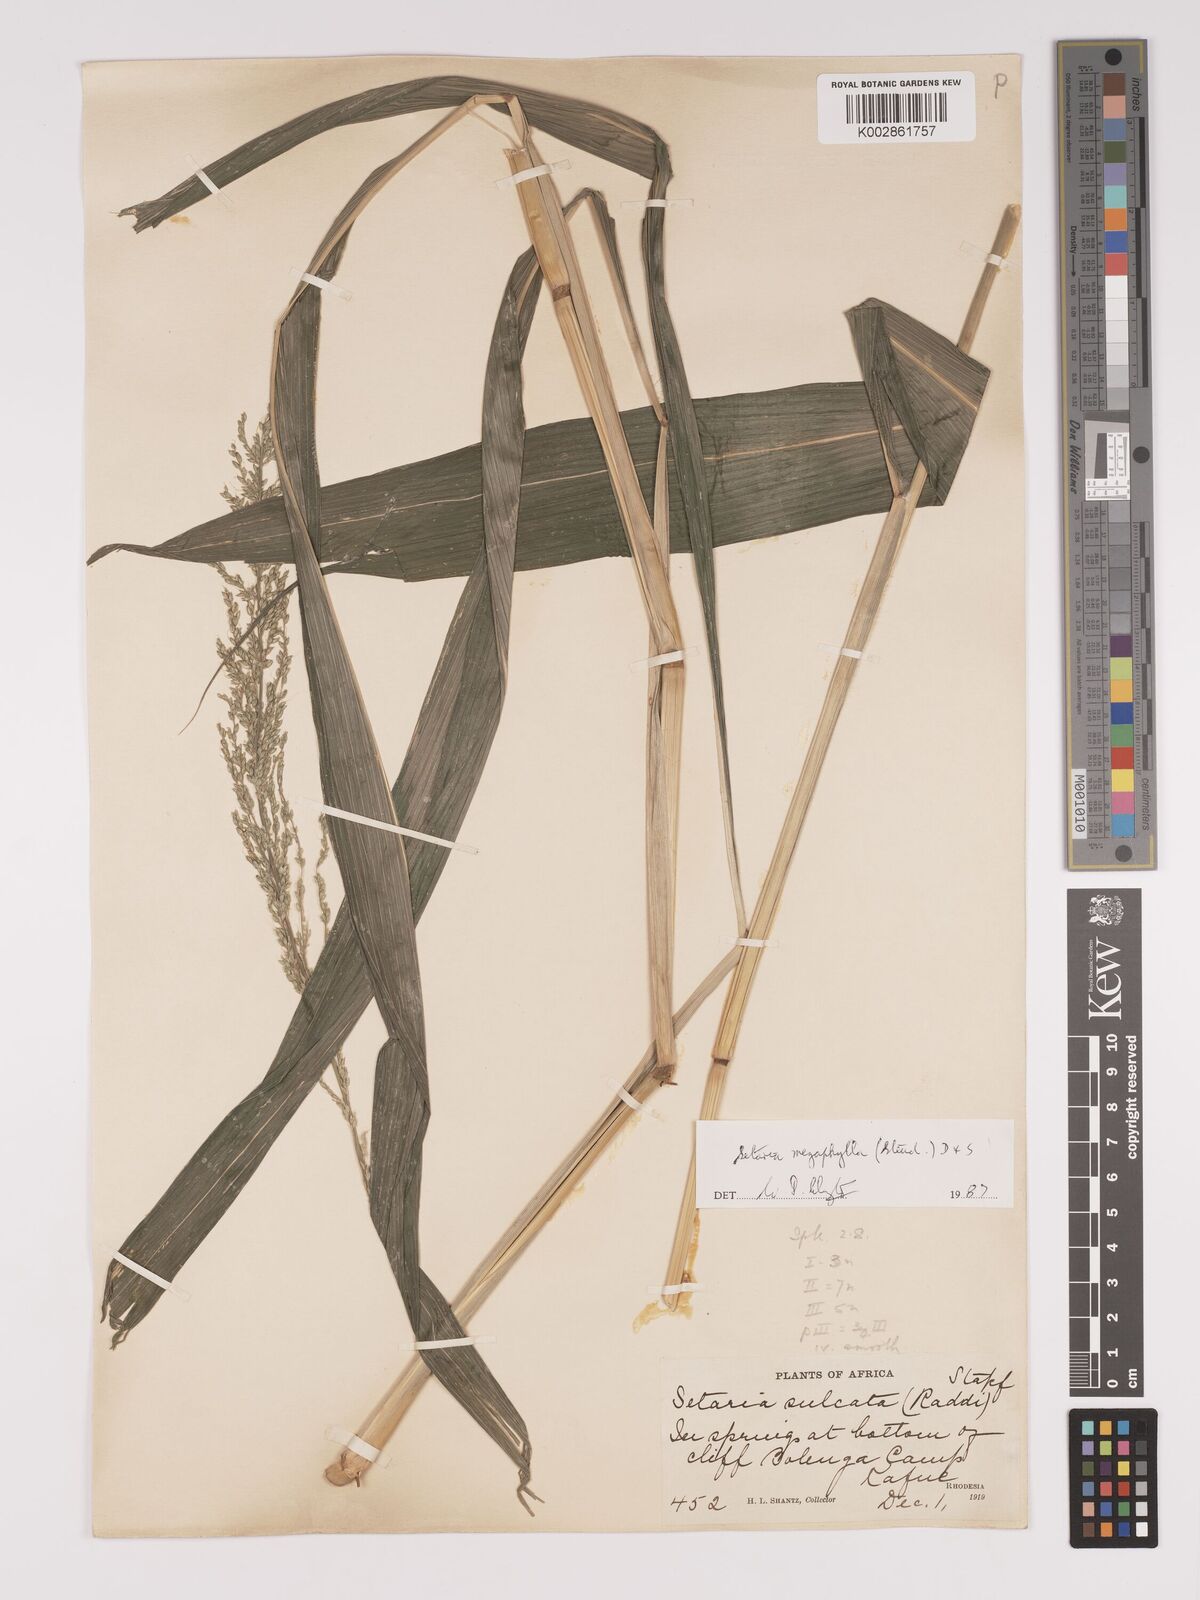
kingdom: Plantae
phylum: Tracheophyta
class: Liliopsida
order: Poales
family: Poaceae
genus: Setaria
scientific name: Setaria megaphylla
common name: Bigleaf bristlegrass
